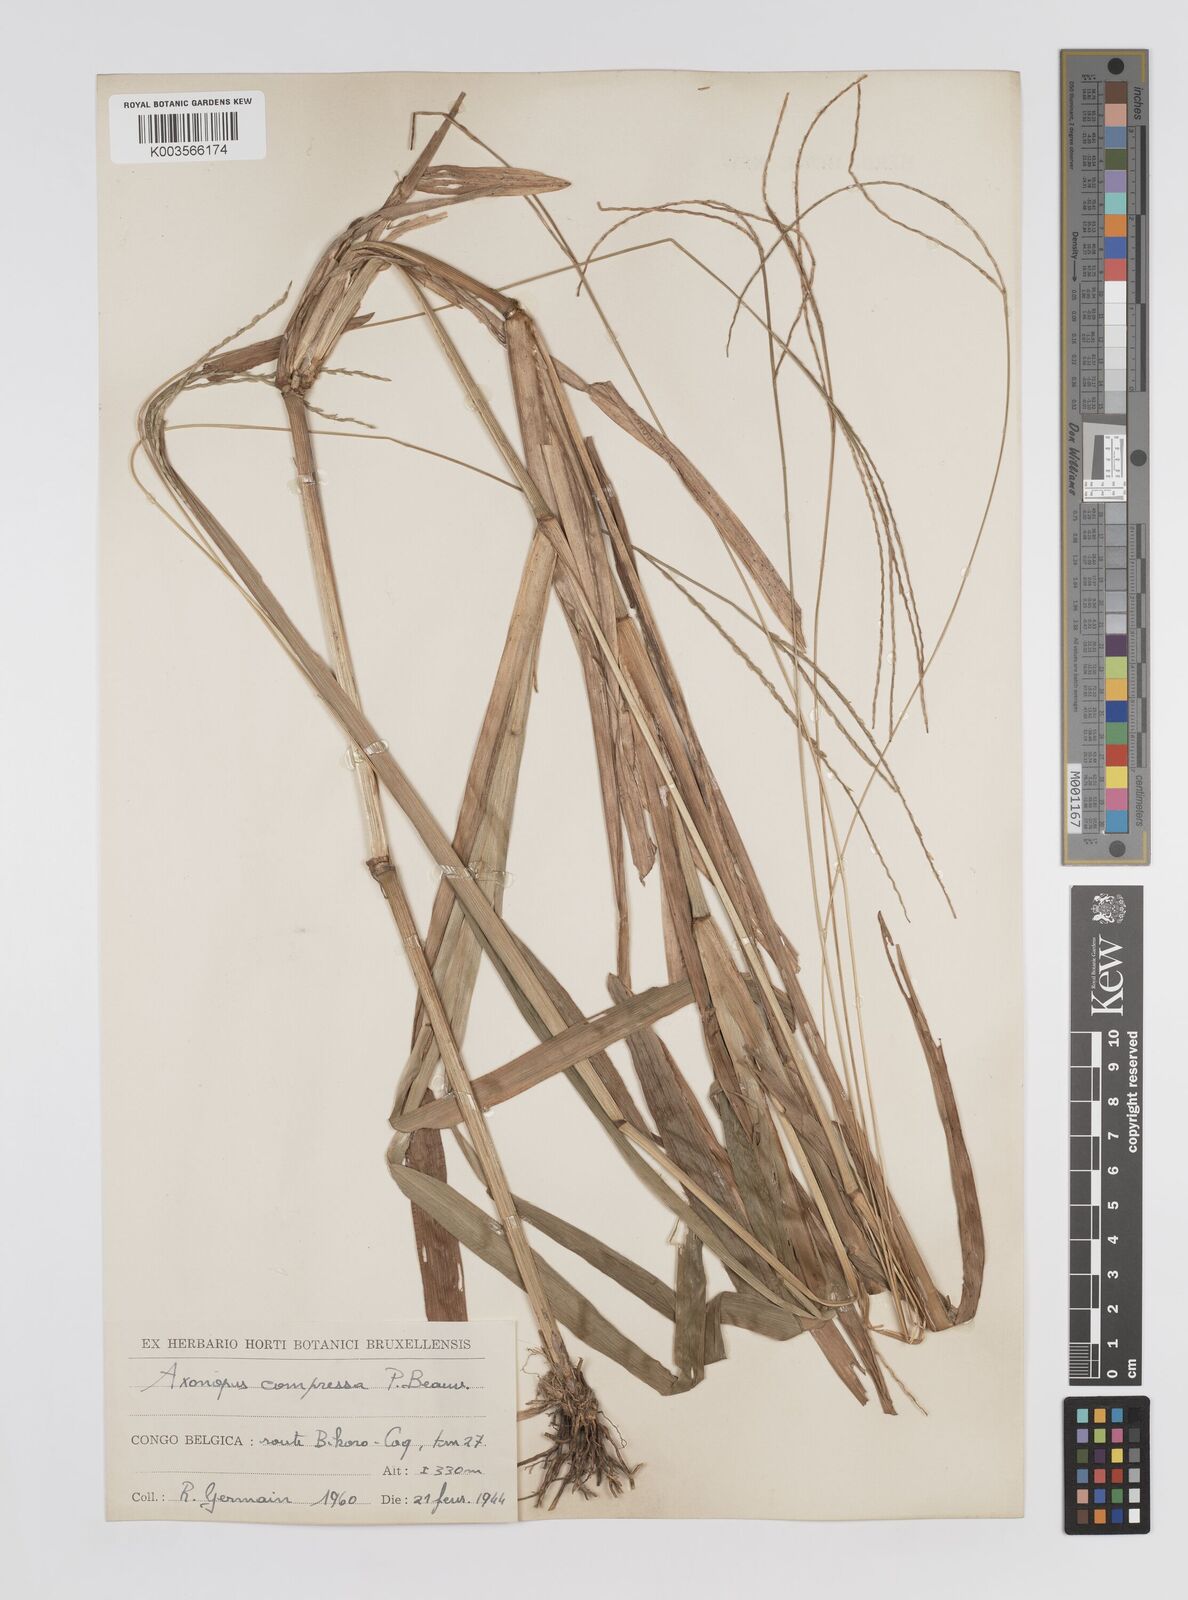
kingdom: Plantae
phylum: Tracheophyta
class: Liliopsida
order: Poales
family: Poaceae
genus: Axonopus
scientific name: Axonopus flexuosus
